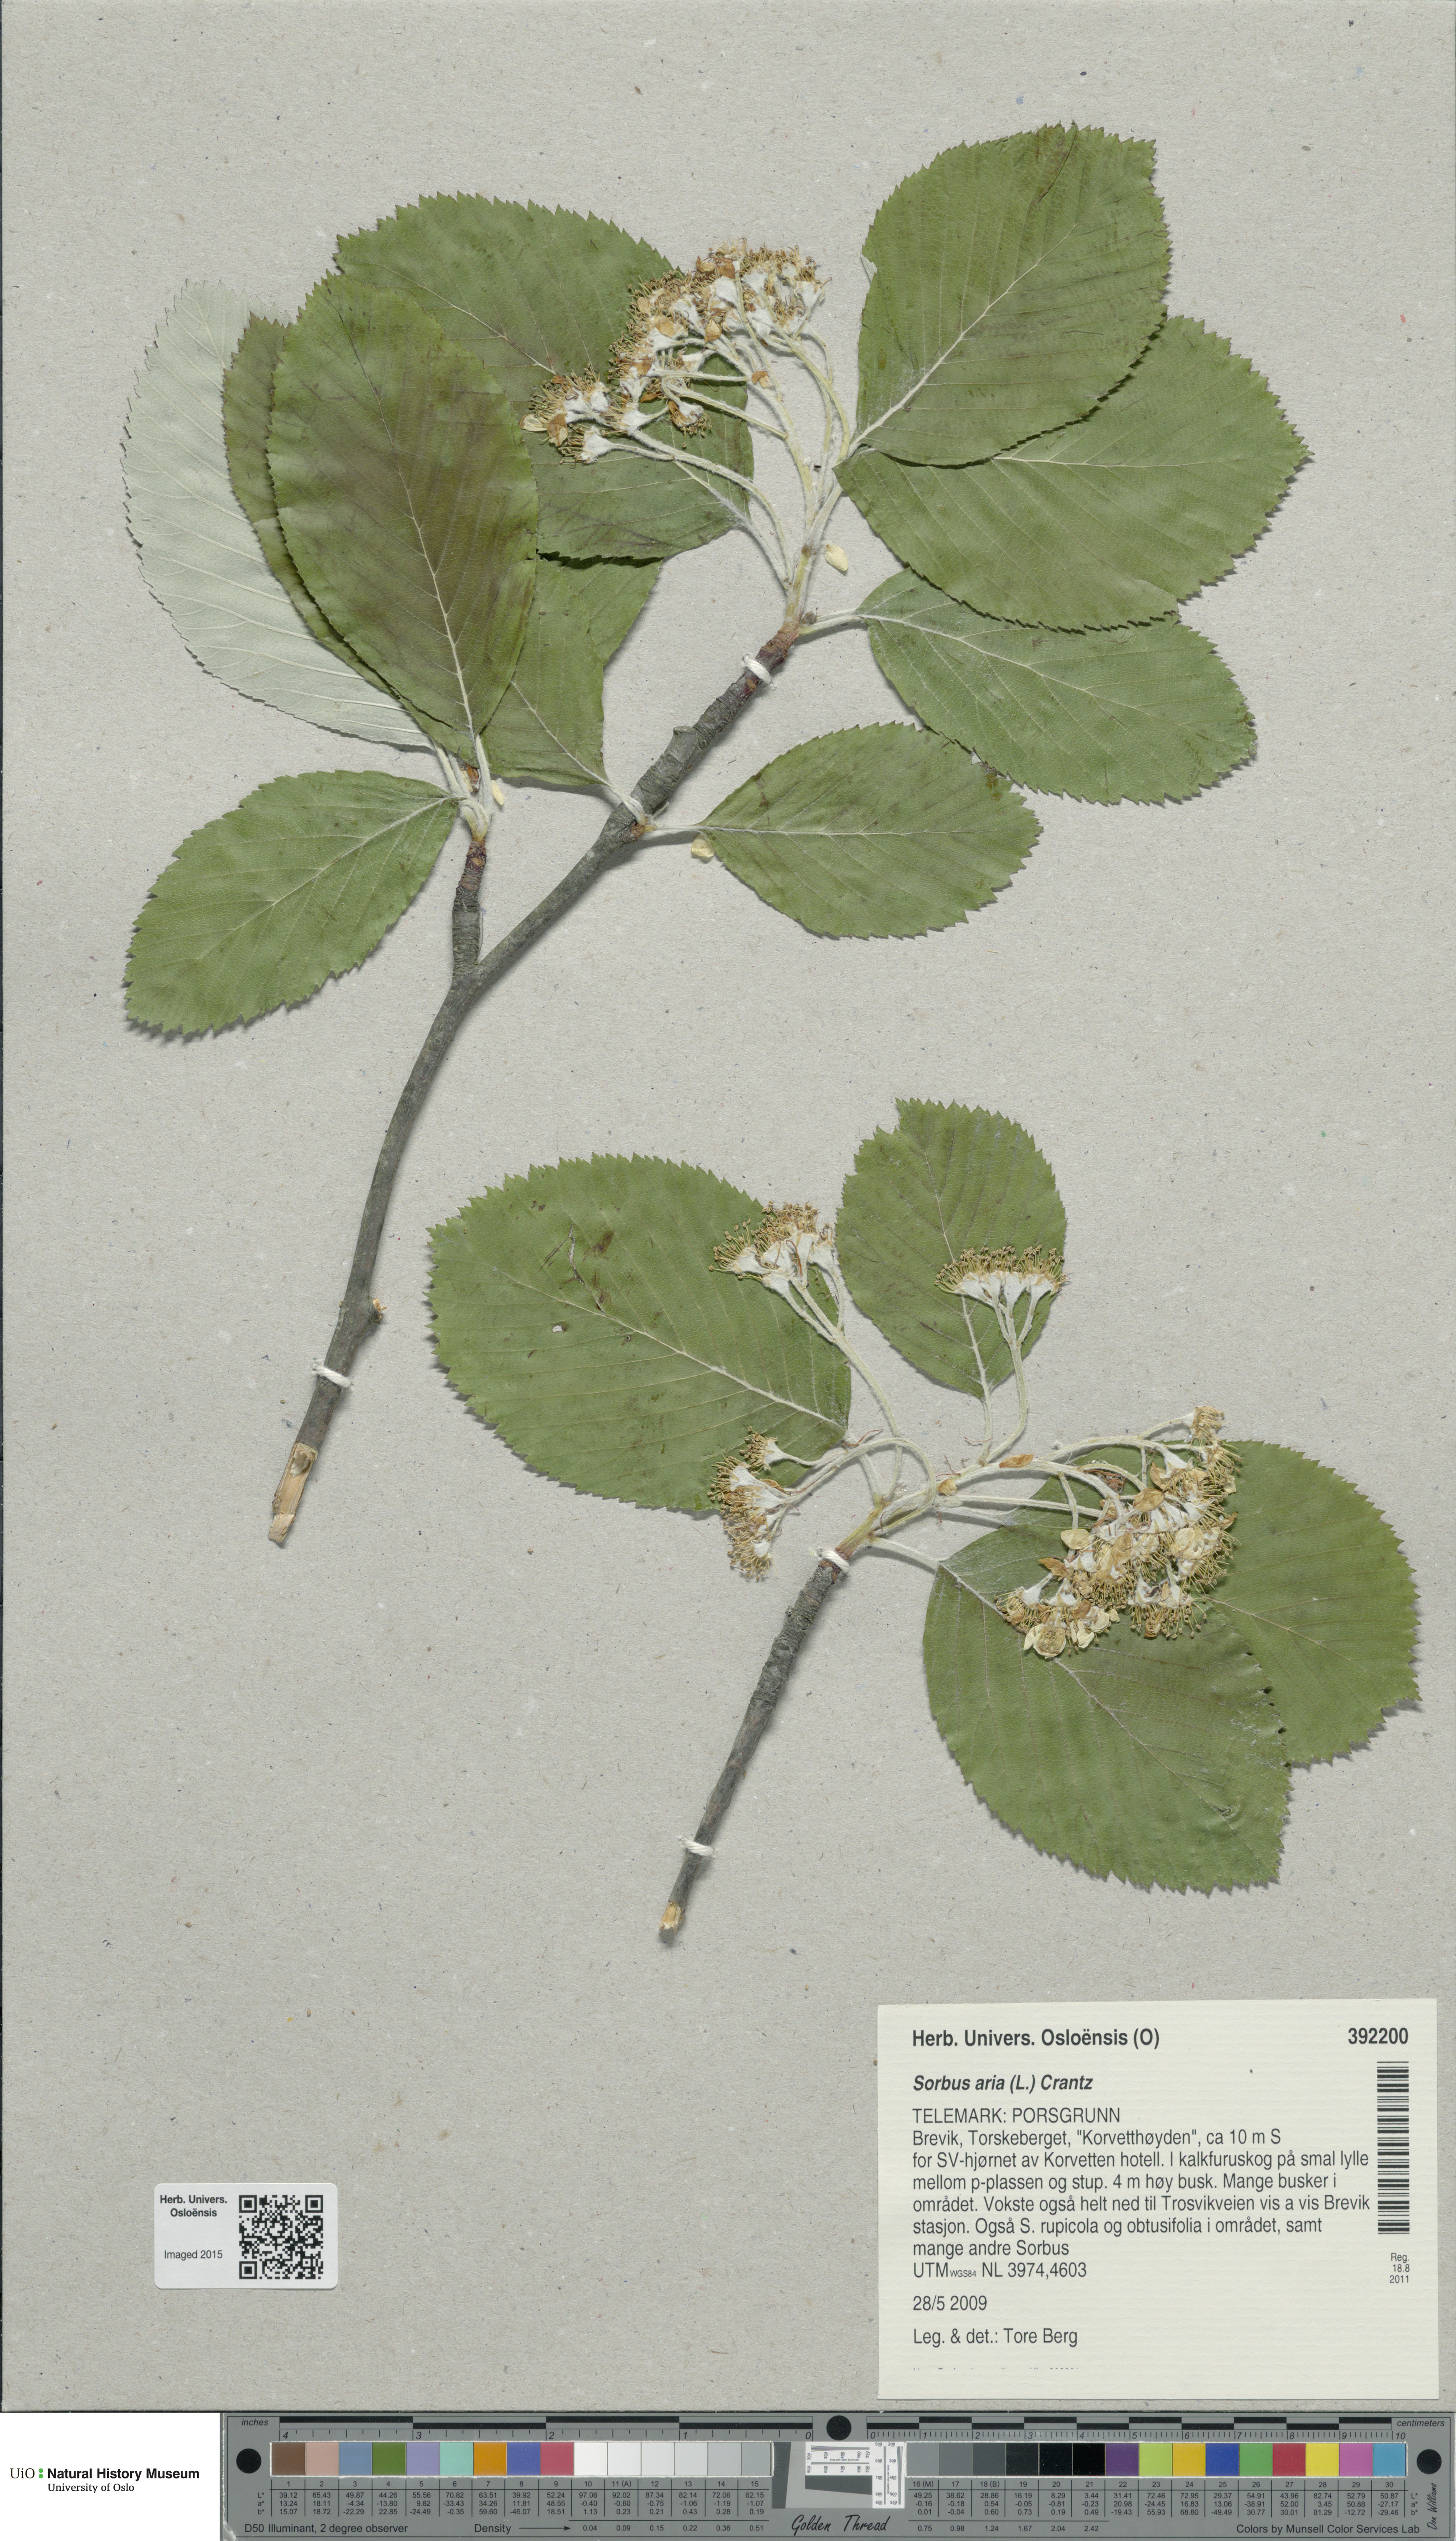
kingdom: Plantae
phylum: Tracheophyta
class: Magnoliopsida
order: Rosales
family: Rosaceae
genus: Aria
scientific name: Aria edulis
